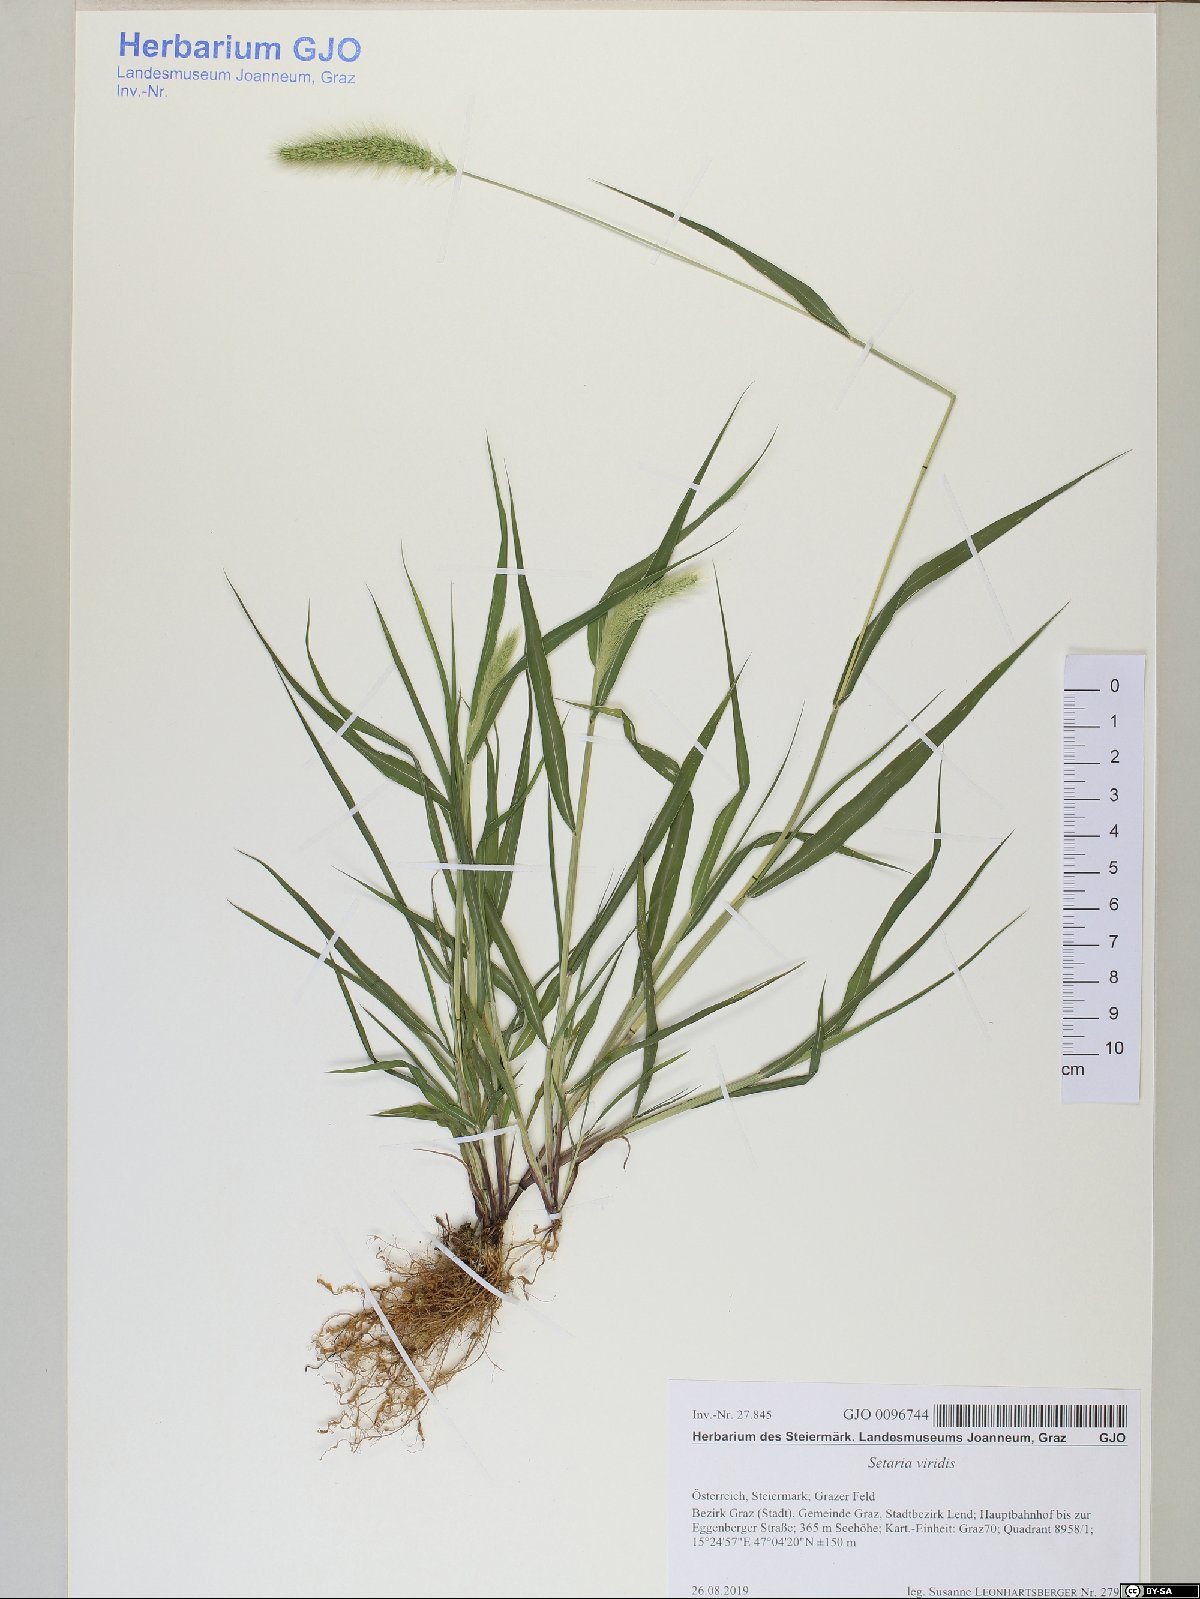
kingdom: Plantae
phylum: Tracheophyta
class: Liliopsida
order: Poales
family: Poaceae
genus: Setaria
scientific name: Setaria viridis
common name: Green bristlegrass
